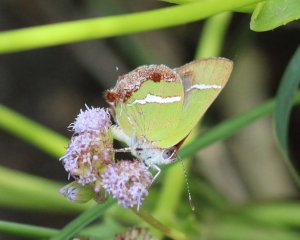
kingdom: Animalia
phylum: Arthropoda
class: Insecta
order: Lepidoptera
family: Lycaenidae
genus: Chlorostrymon
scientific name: Chlorostrymon simaethis
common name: Silver-banded Hairstreak
